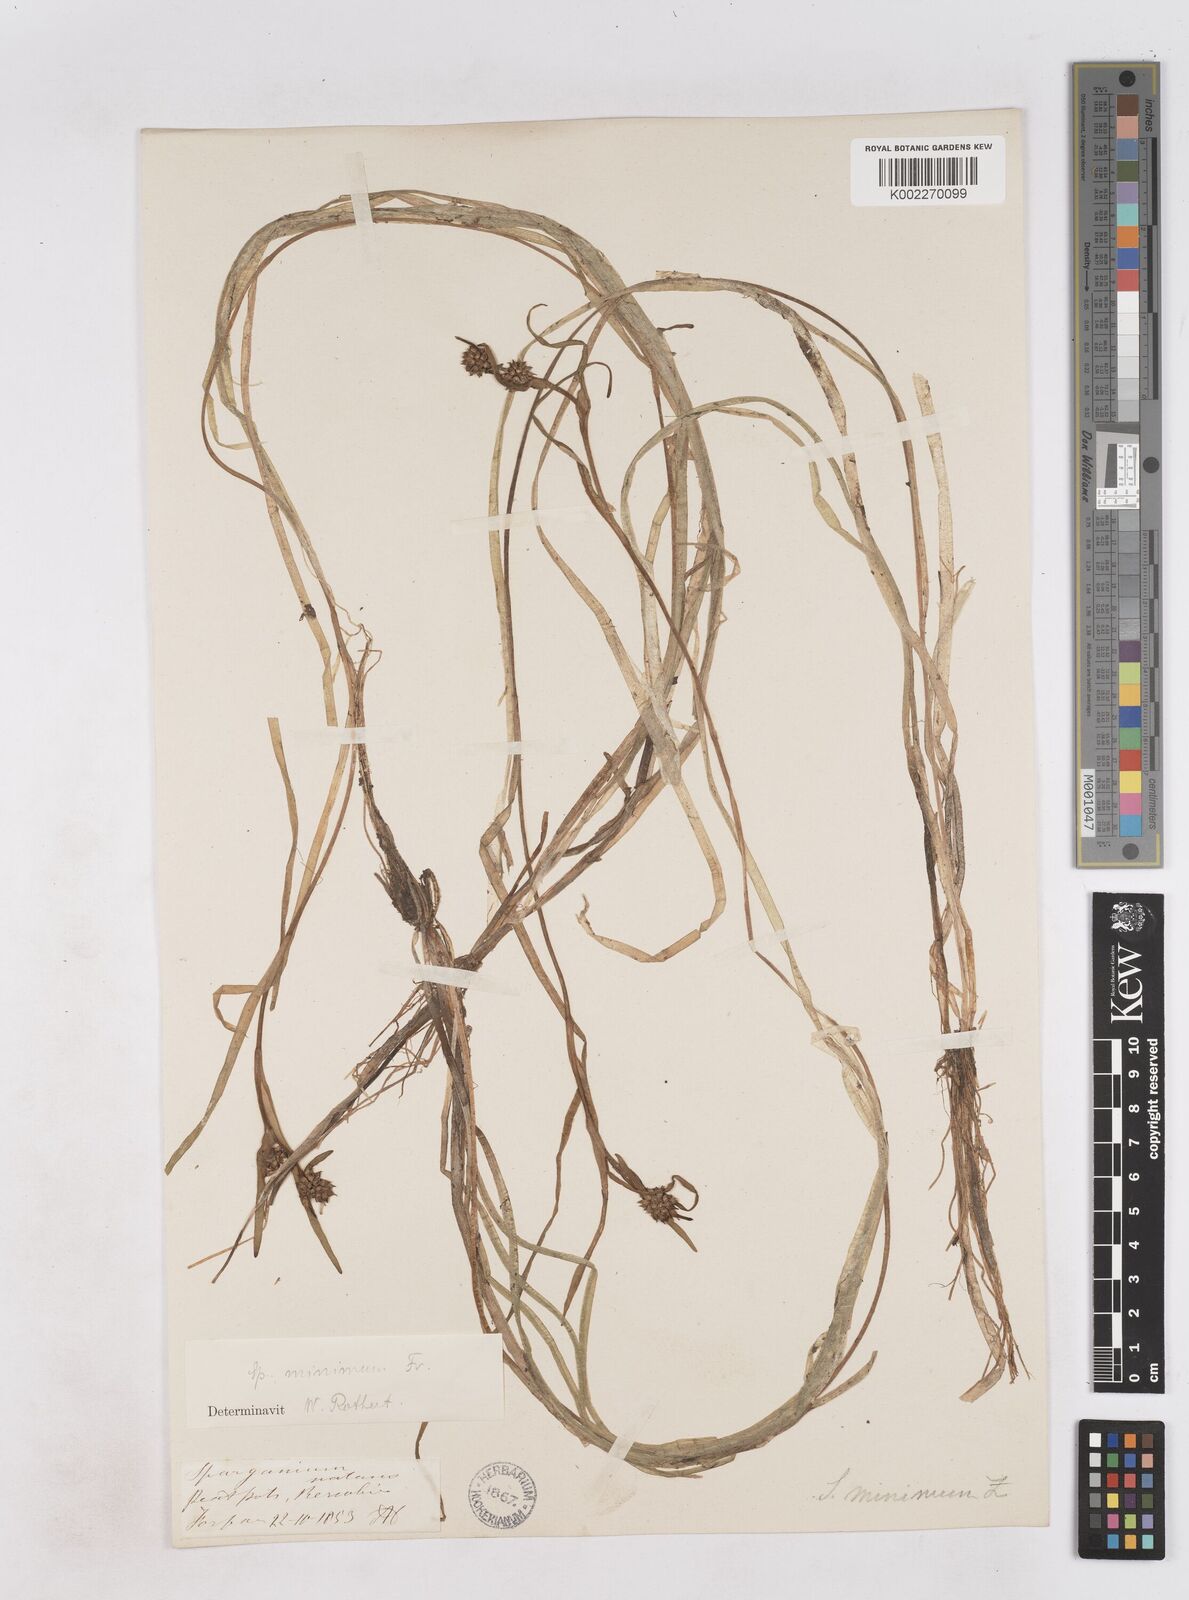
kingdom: Plantae
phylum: Tracheophyta
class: Liliopsida
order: Poales
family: Typhaceae
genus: Sparganium
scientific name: Sparganium natans
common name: Least bur-reed
